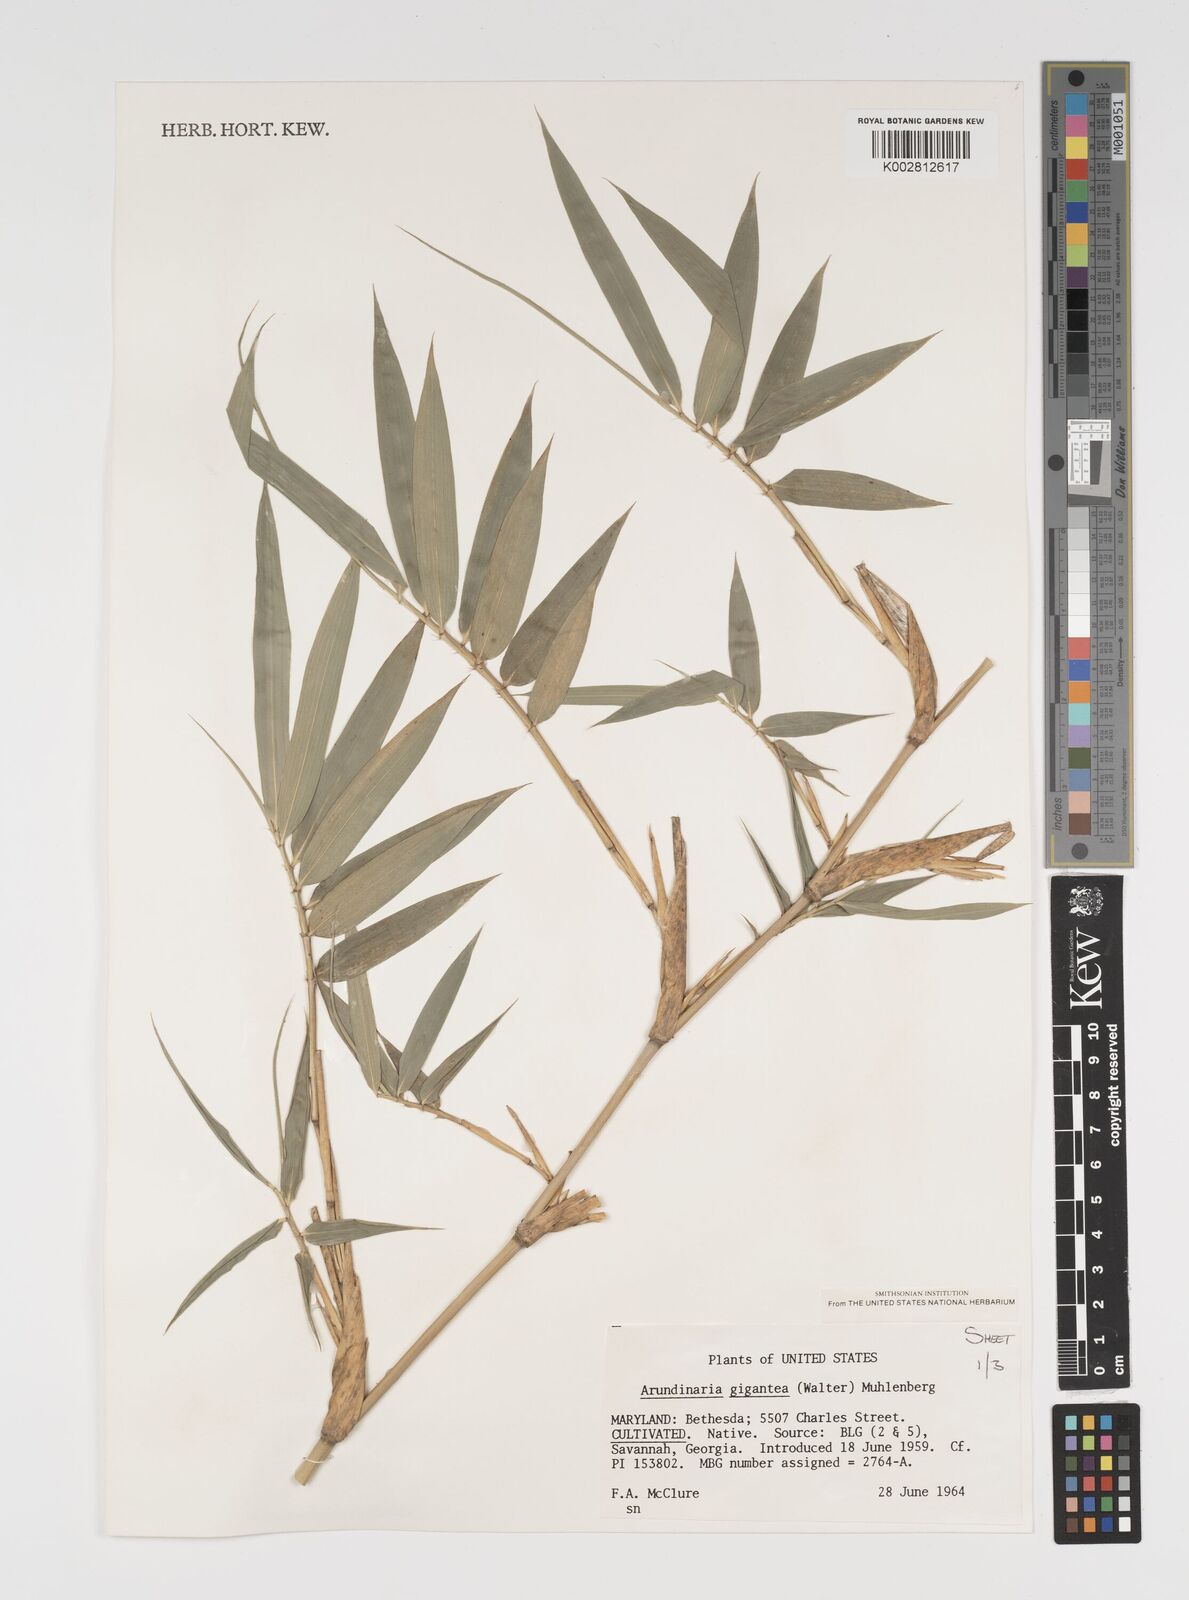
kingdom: Plantae
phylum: Tracheophyta
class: Liliopsida
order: Poales
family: Poaceae
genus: Arundinaria
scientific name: Arundinaria
